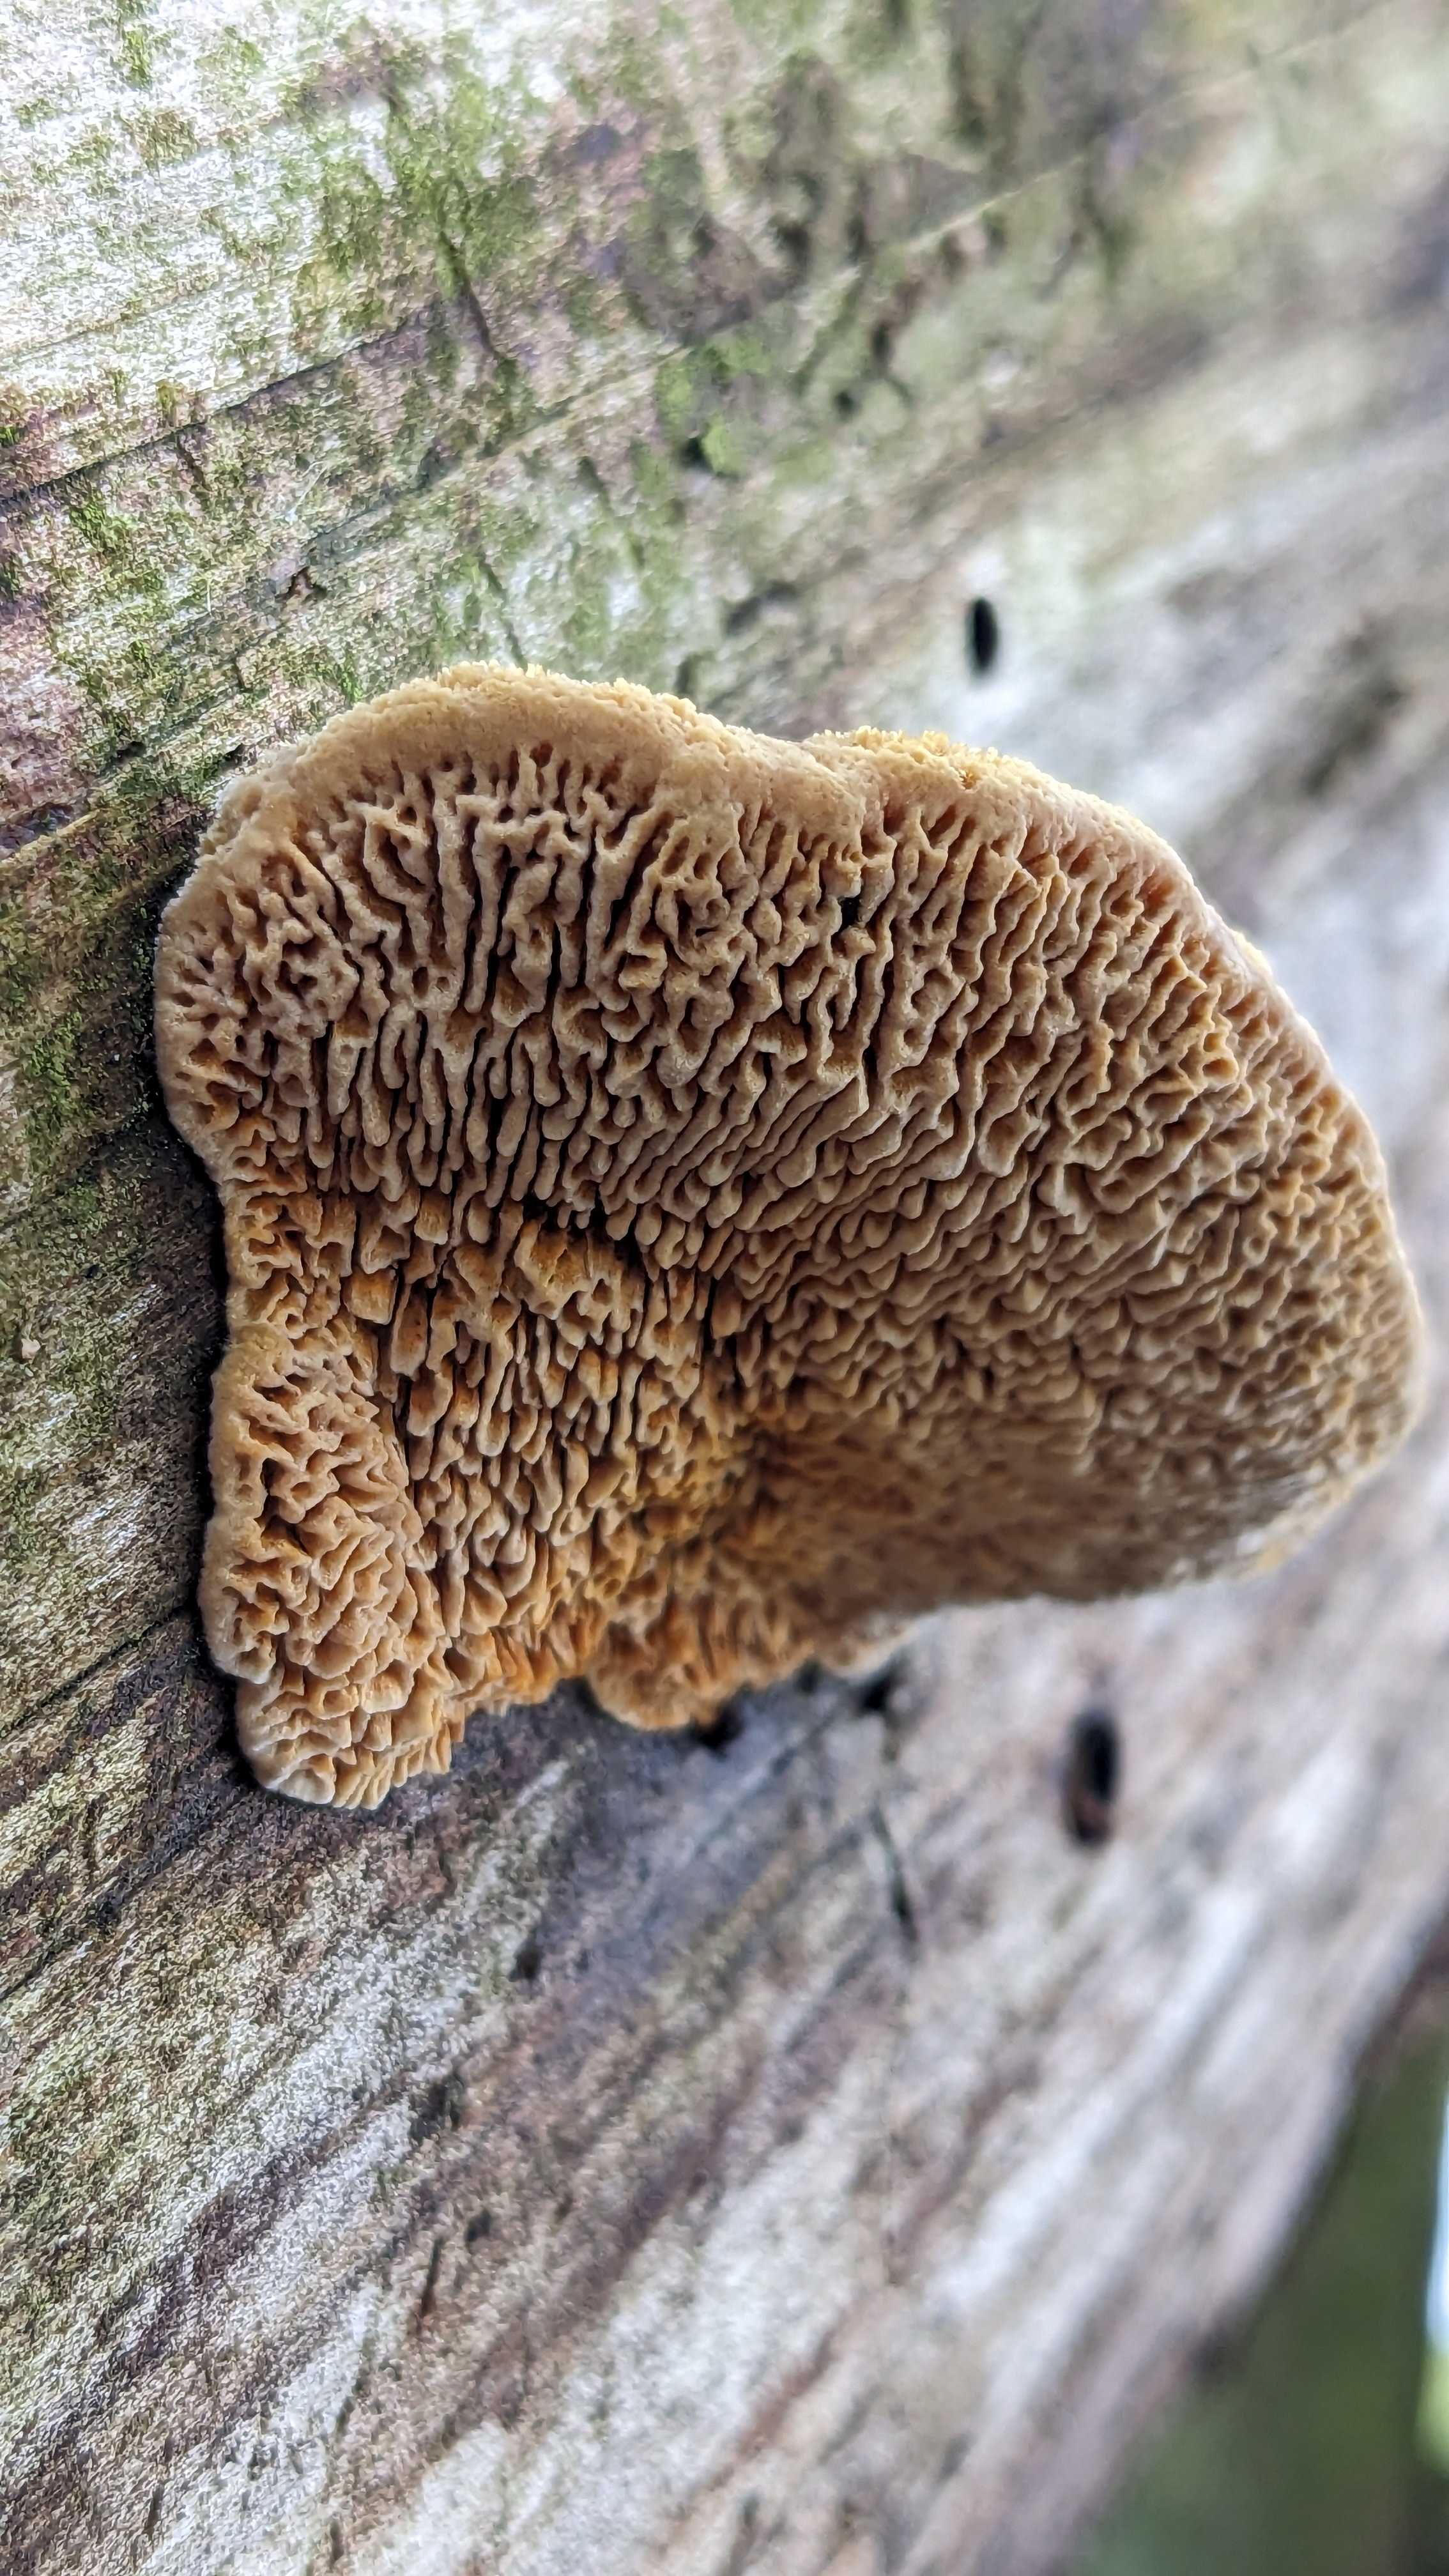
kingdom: Fungi
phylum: Basidiomycota
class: Agaricomycetes
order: Gloeophyllales
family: Gloeophyllaceae
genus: Gloeophyllum
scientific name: Gloeophyllum sepiarium
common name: fyrre-korkhat
